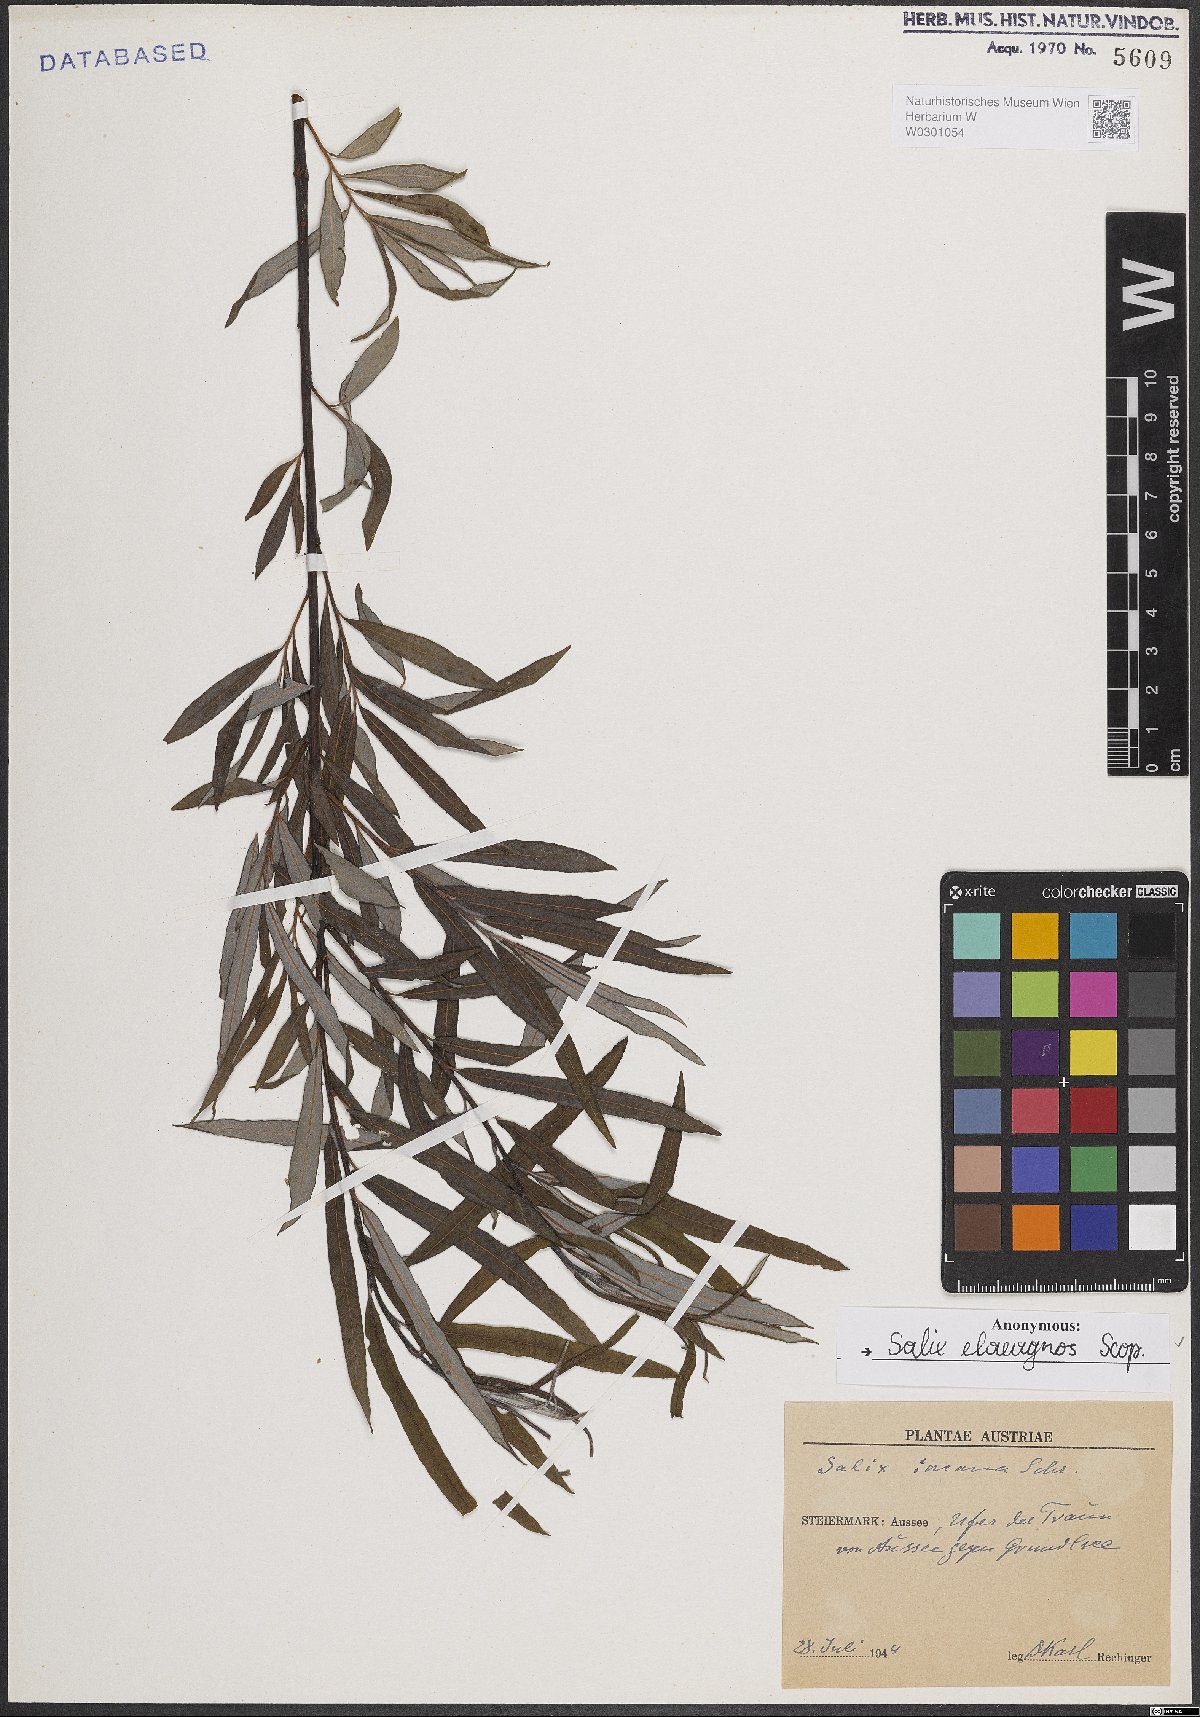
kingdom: Plantae
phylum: Tracheophyta
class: Magnoliopsida
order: Malpighiales
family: Salicaceae
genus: Salix
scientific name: Salix eleagnos
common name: Elaeagnus willow
